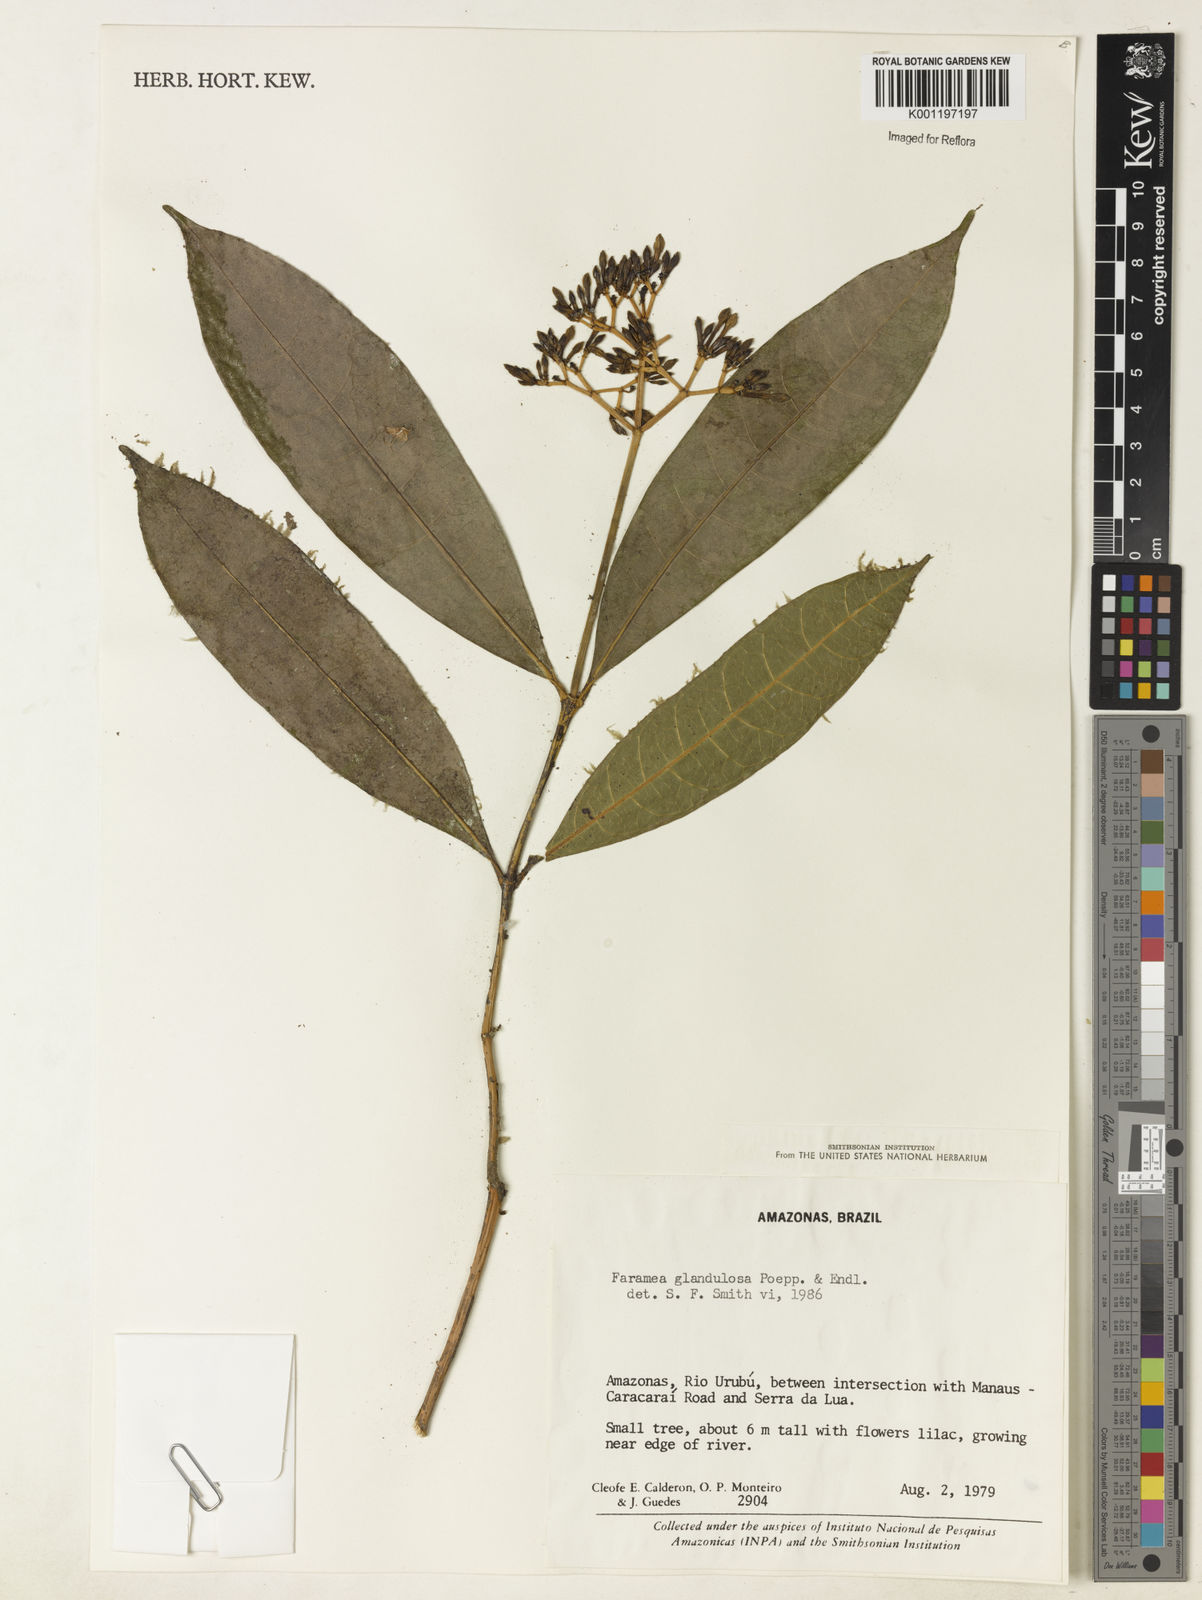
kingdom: Plantae
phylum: Tracheophyta
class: Magnoliopsida
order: Gentianales
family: Rubiaceae
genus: Faramea
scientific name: Faramea glandulosa
